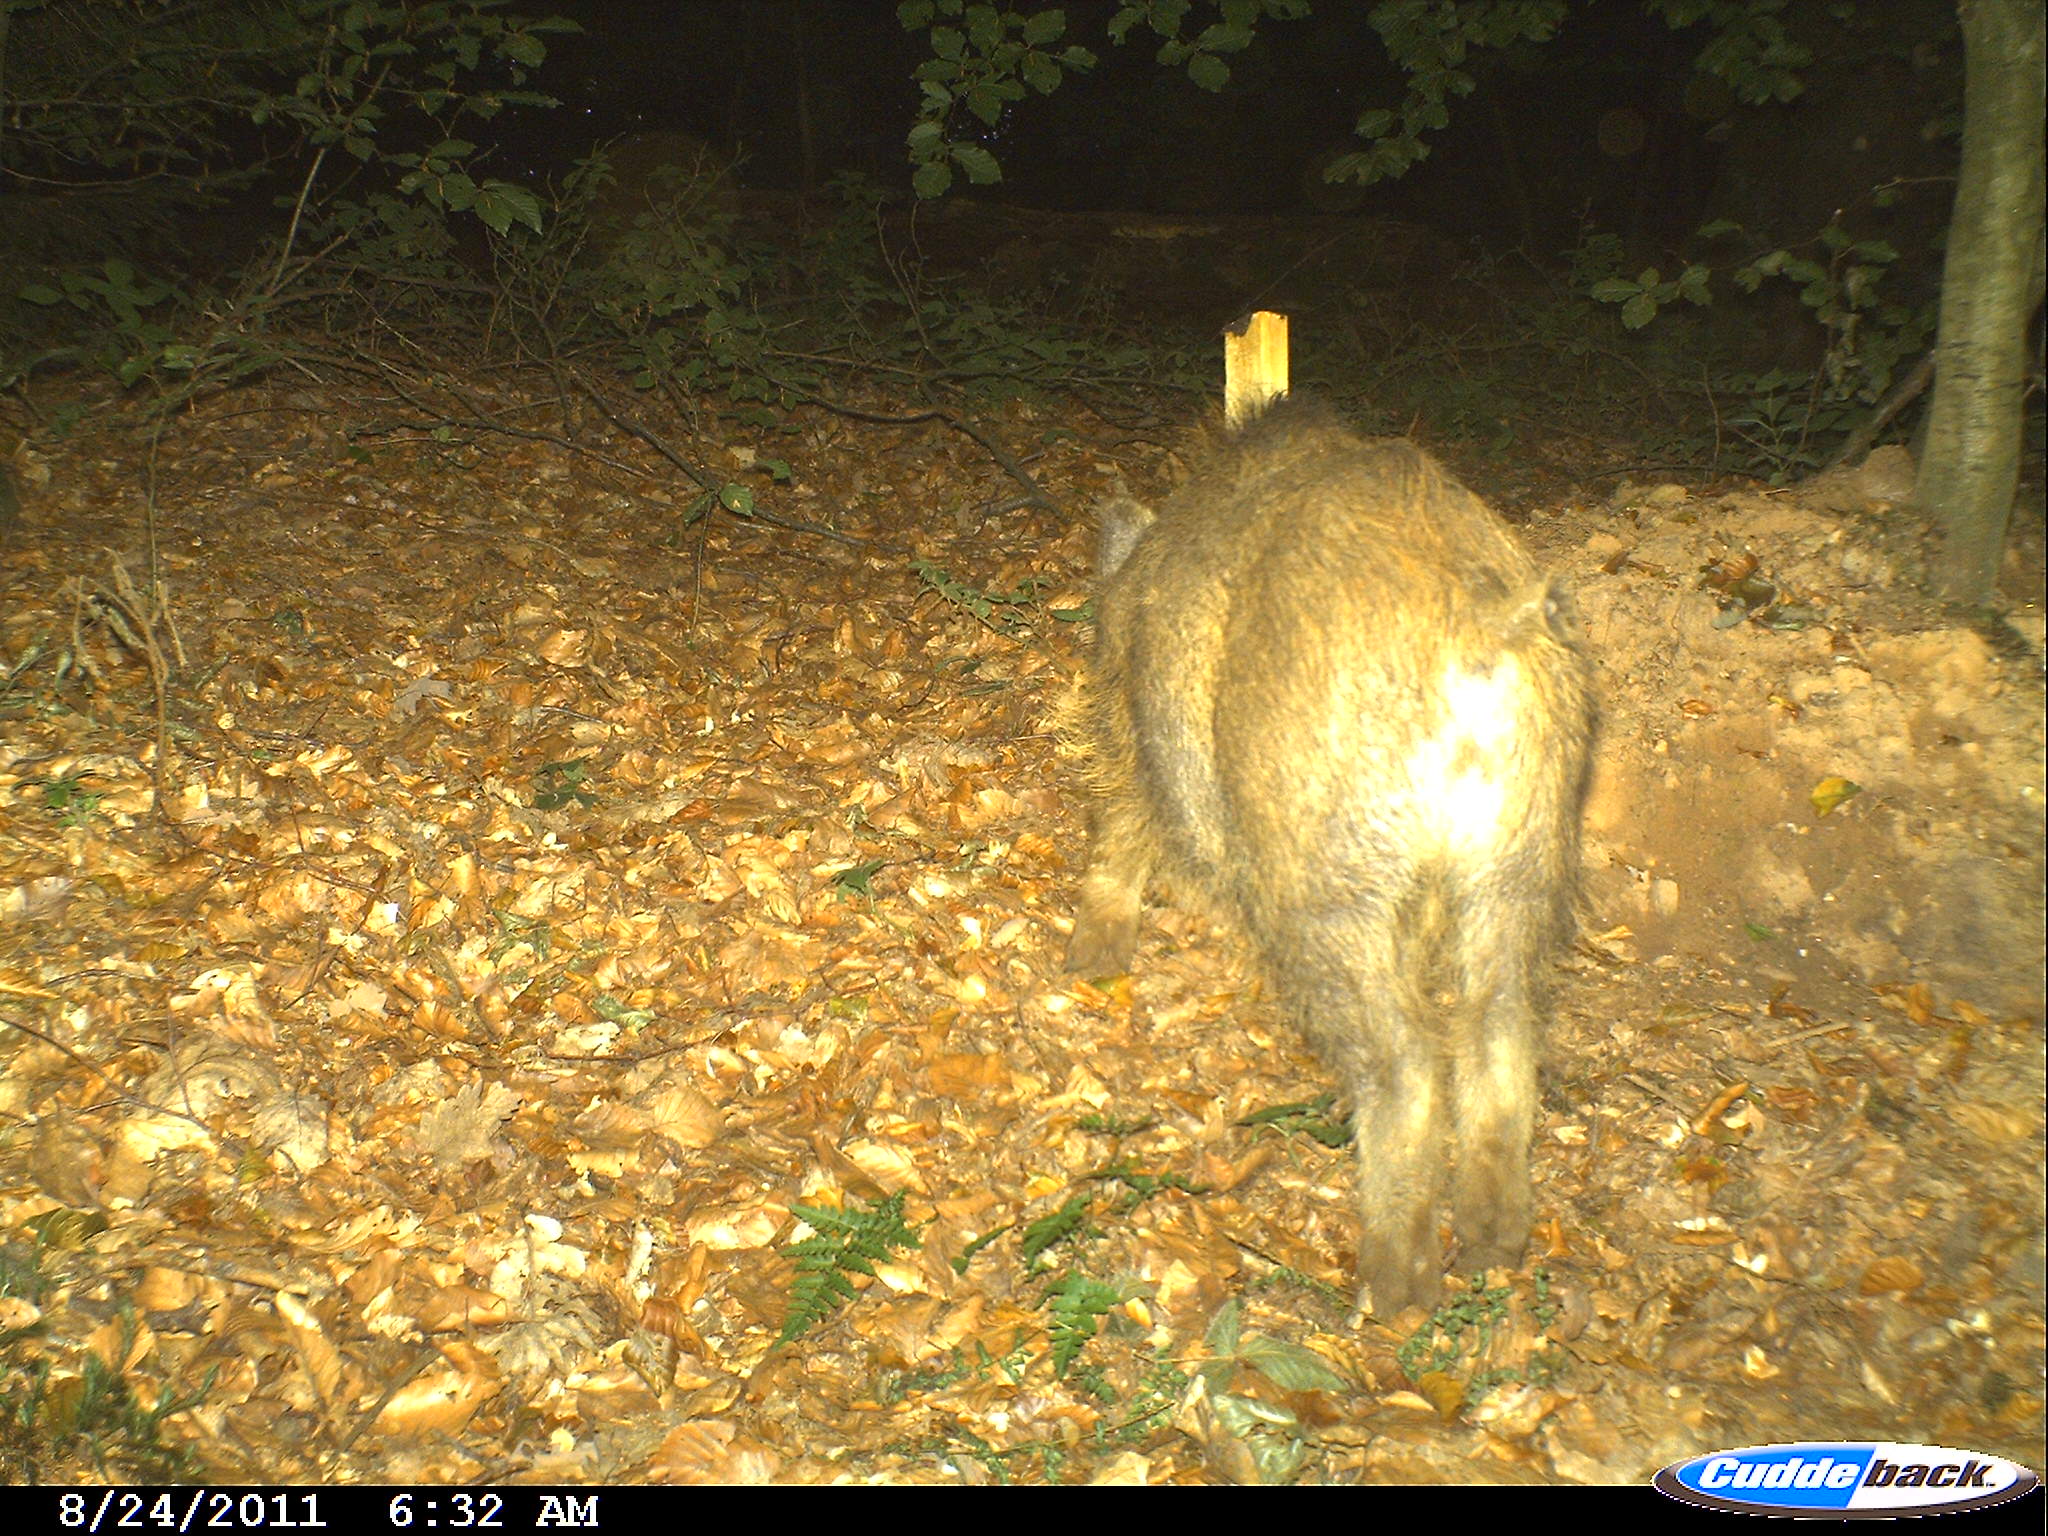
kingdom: Animalia
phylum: Chordata
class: Mammalia
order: Artiodactyla
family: Suidae
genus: Sus
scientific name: Sus scrofa
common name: Wild boar
